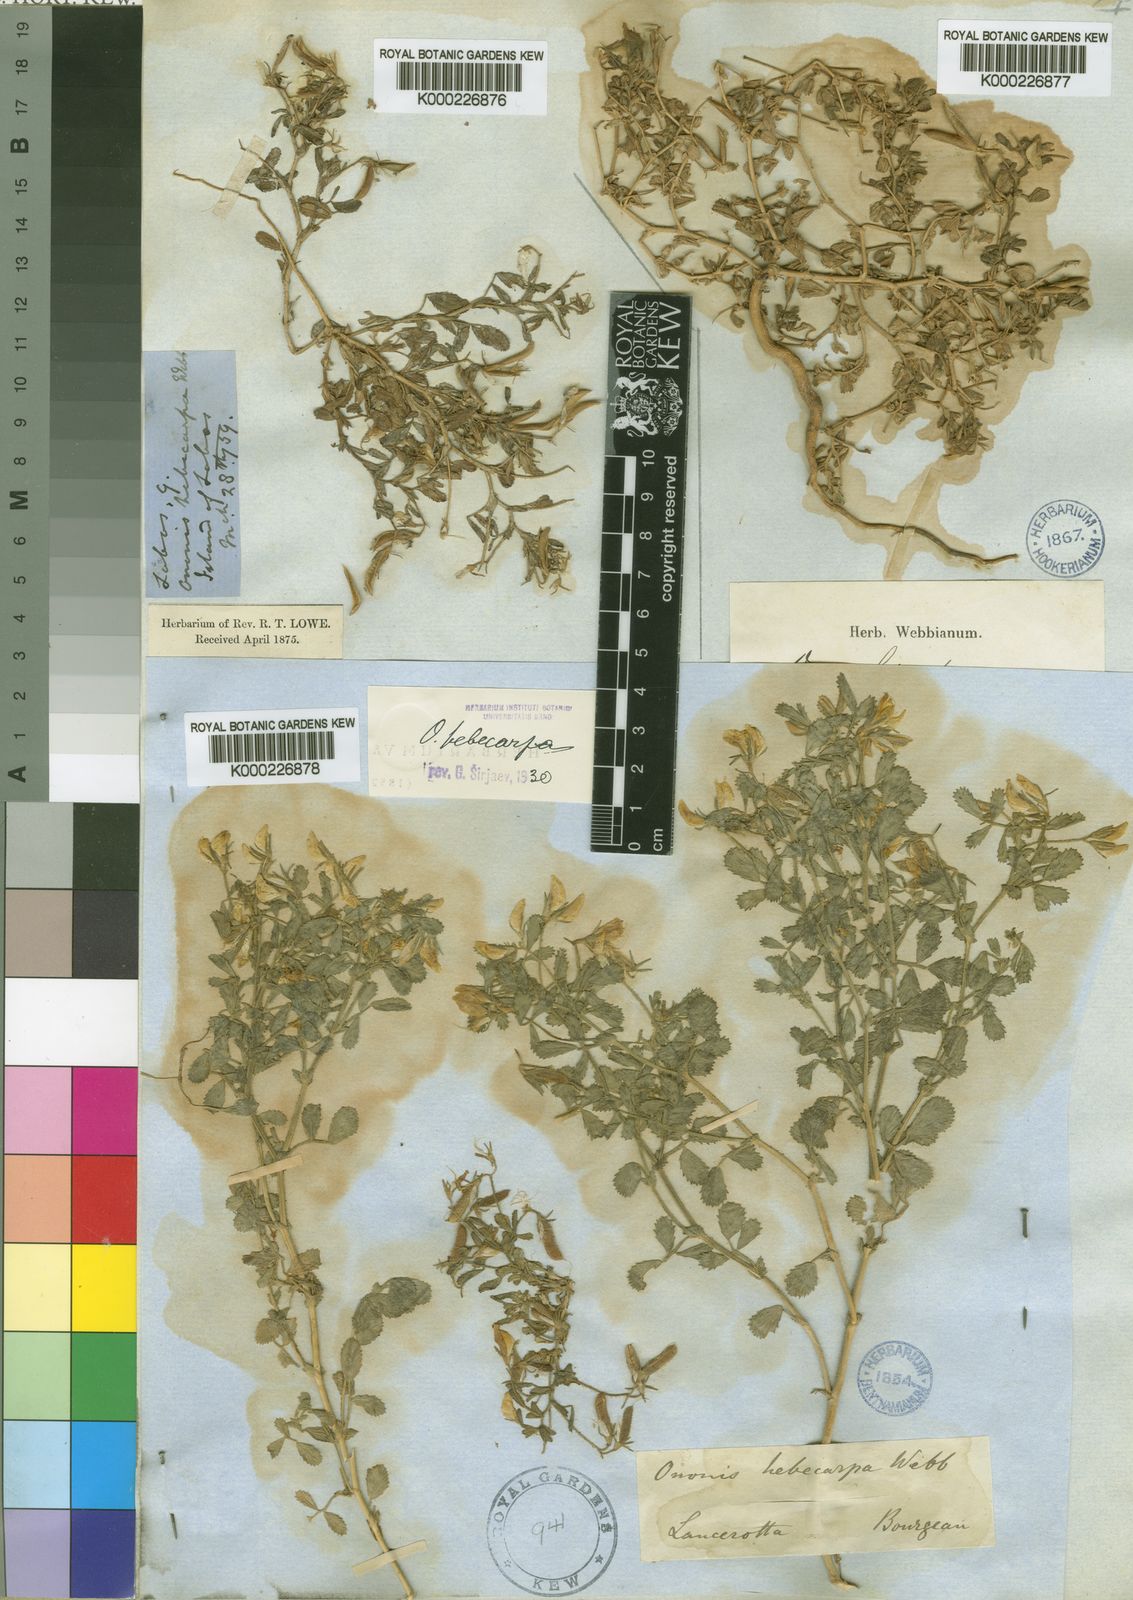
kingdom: Plantae
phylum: Tracheophyta
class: Magnoliopsida
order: Fabales
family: Fabaceae
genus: Ononis
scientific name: Ononis hebecarpa
